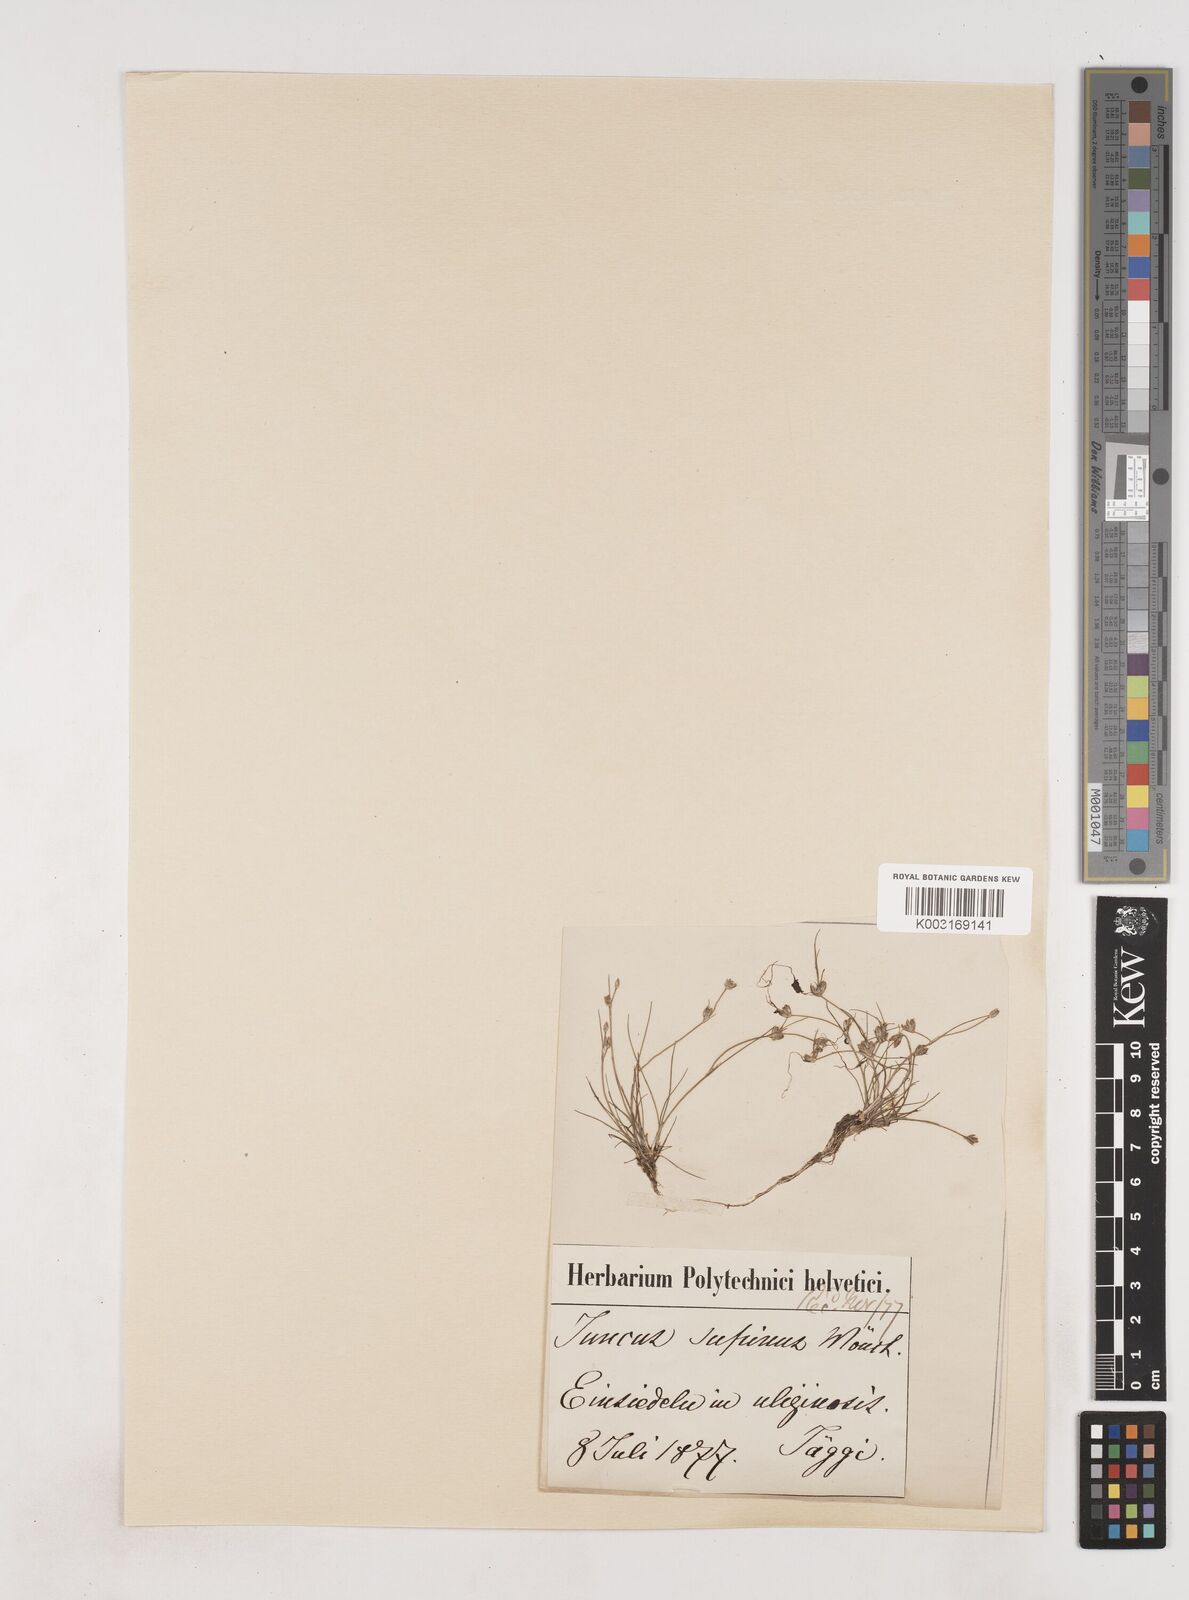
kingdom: Plantae
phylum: Tracheophyta
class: Liliopsida
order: Poales
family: Juncaceae
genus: Juncus
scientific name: Juncus bulbosus
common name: Bulbous rush
